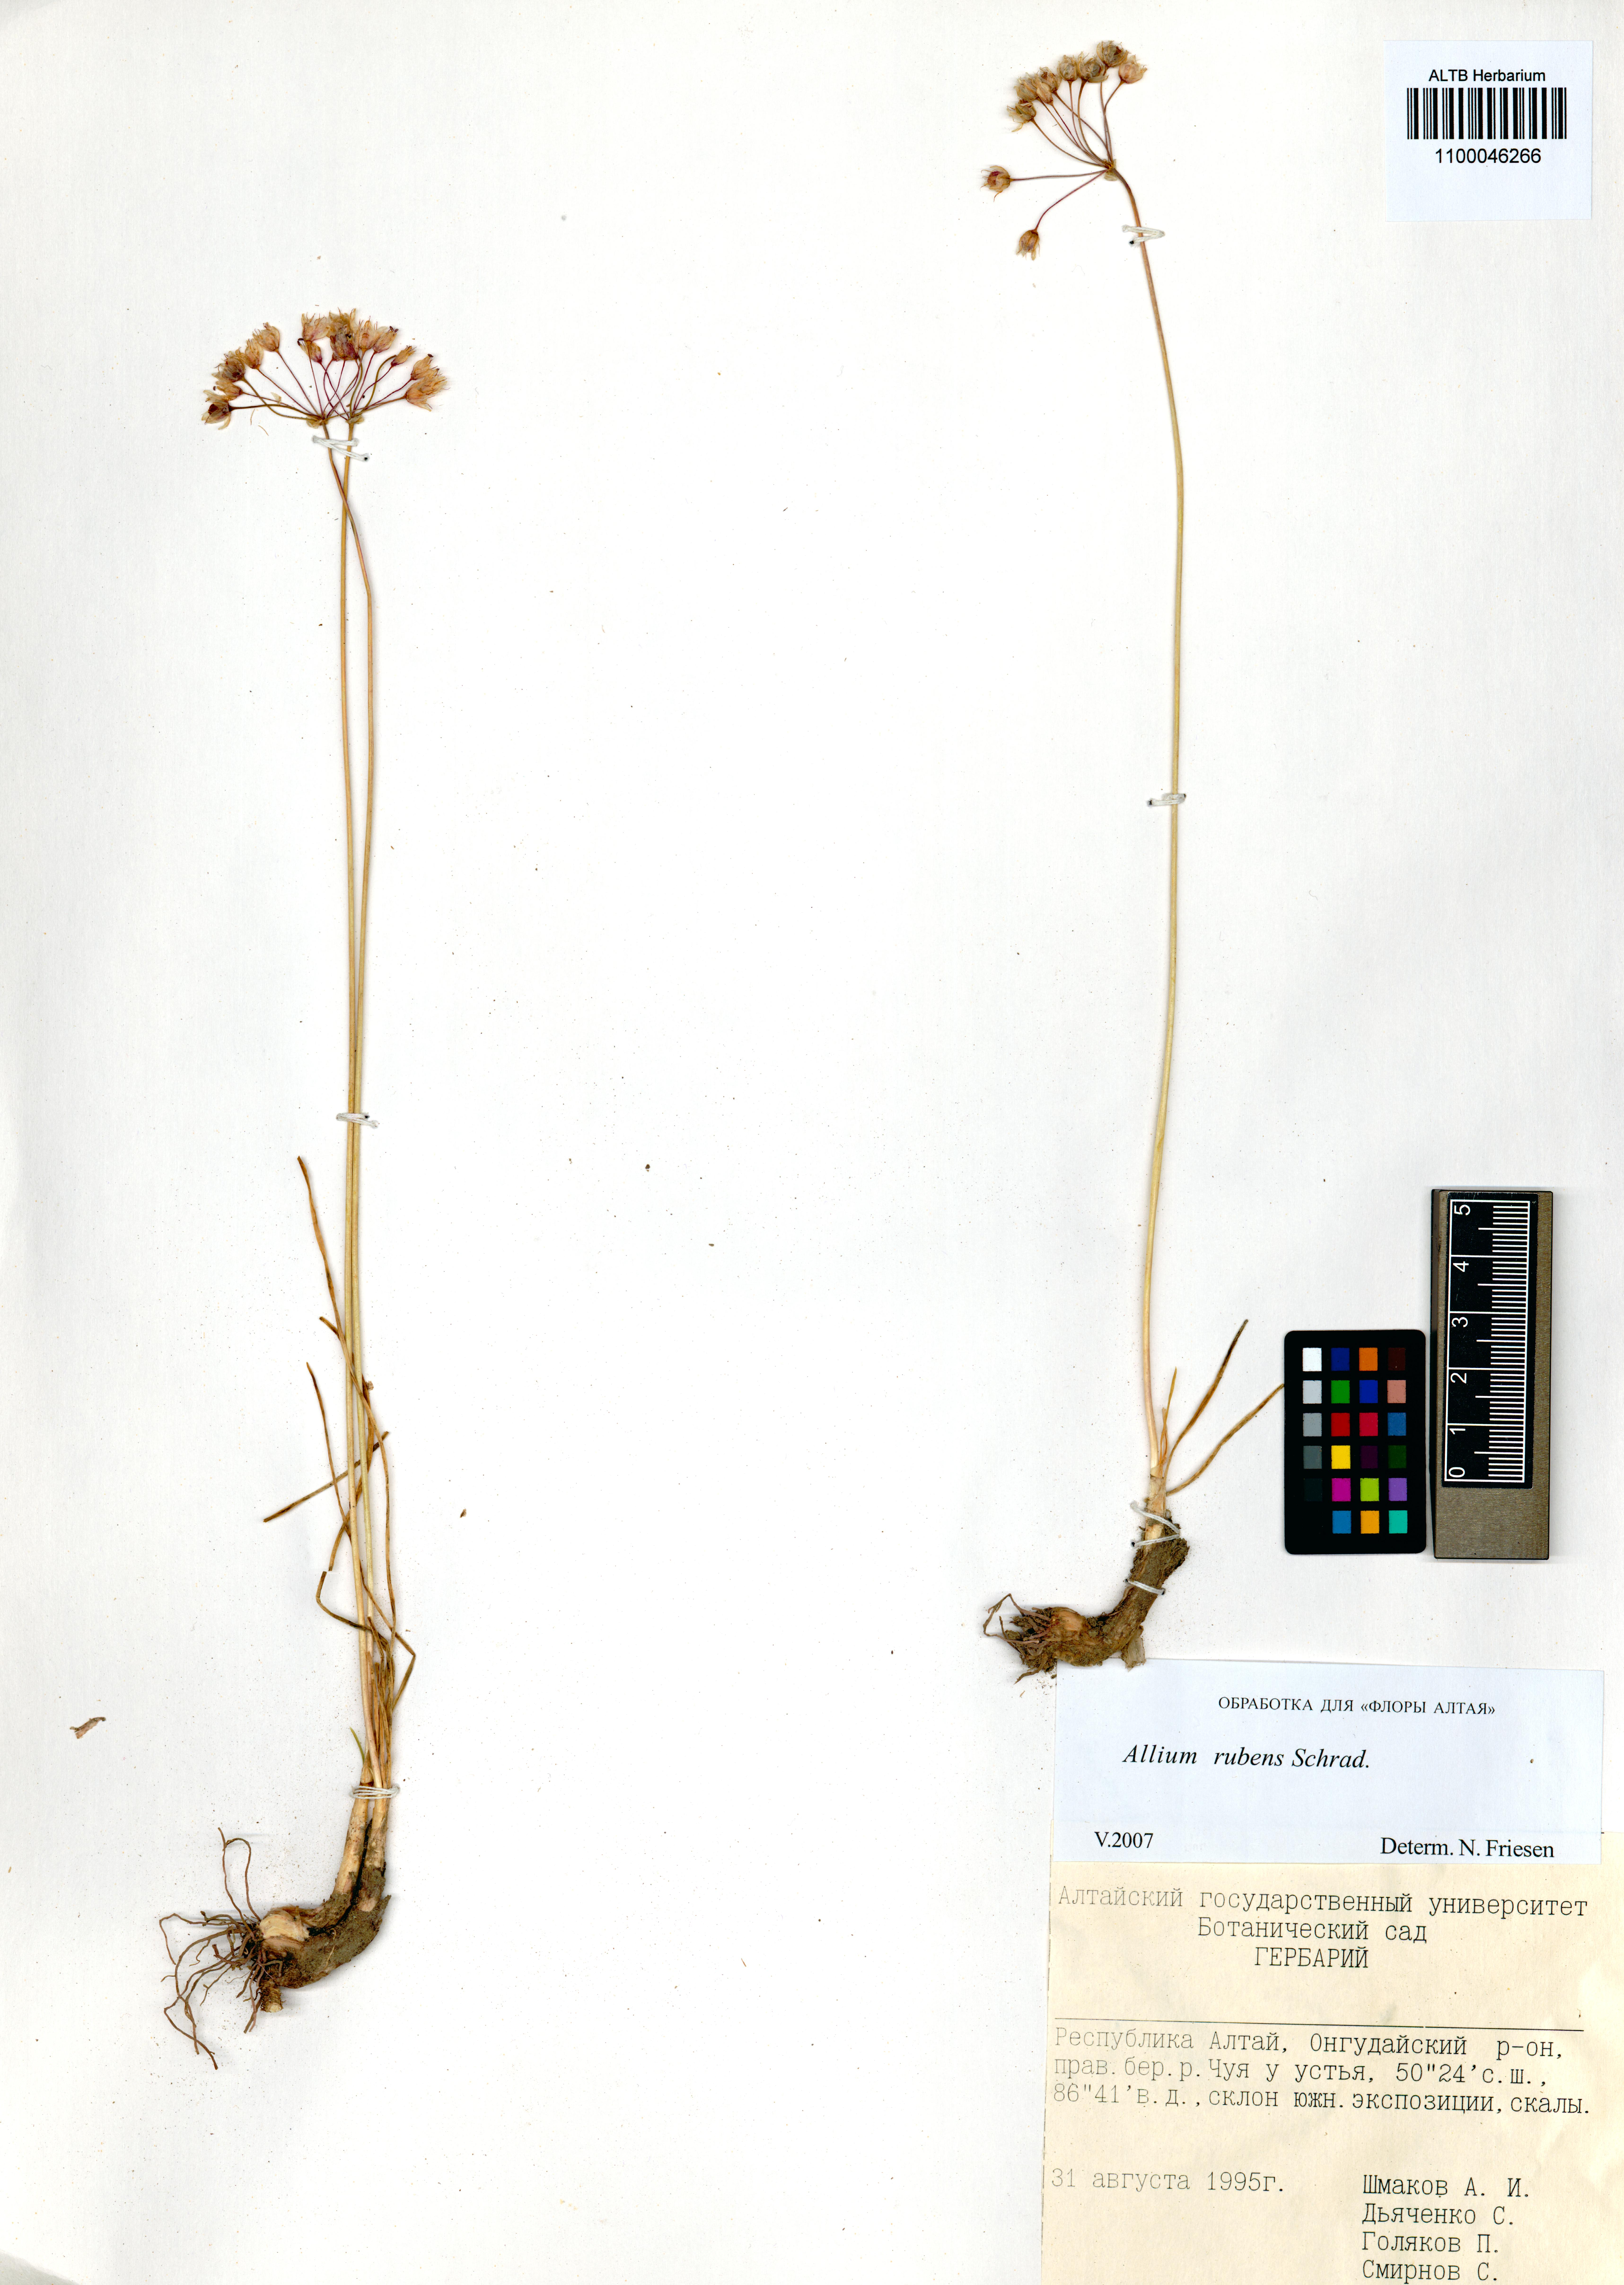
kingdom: Plantae
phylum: Tracheophyta
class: Liliopsida
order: Asparagales
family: Amaryllidaceae
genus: Allium
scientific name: Allium rubens
